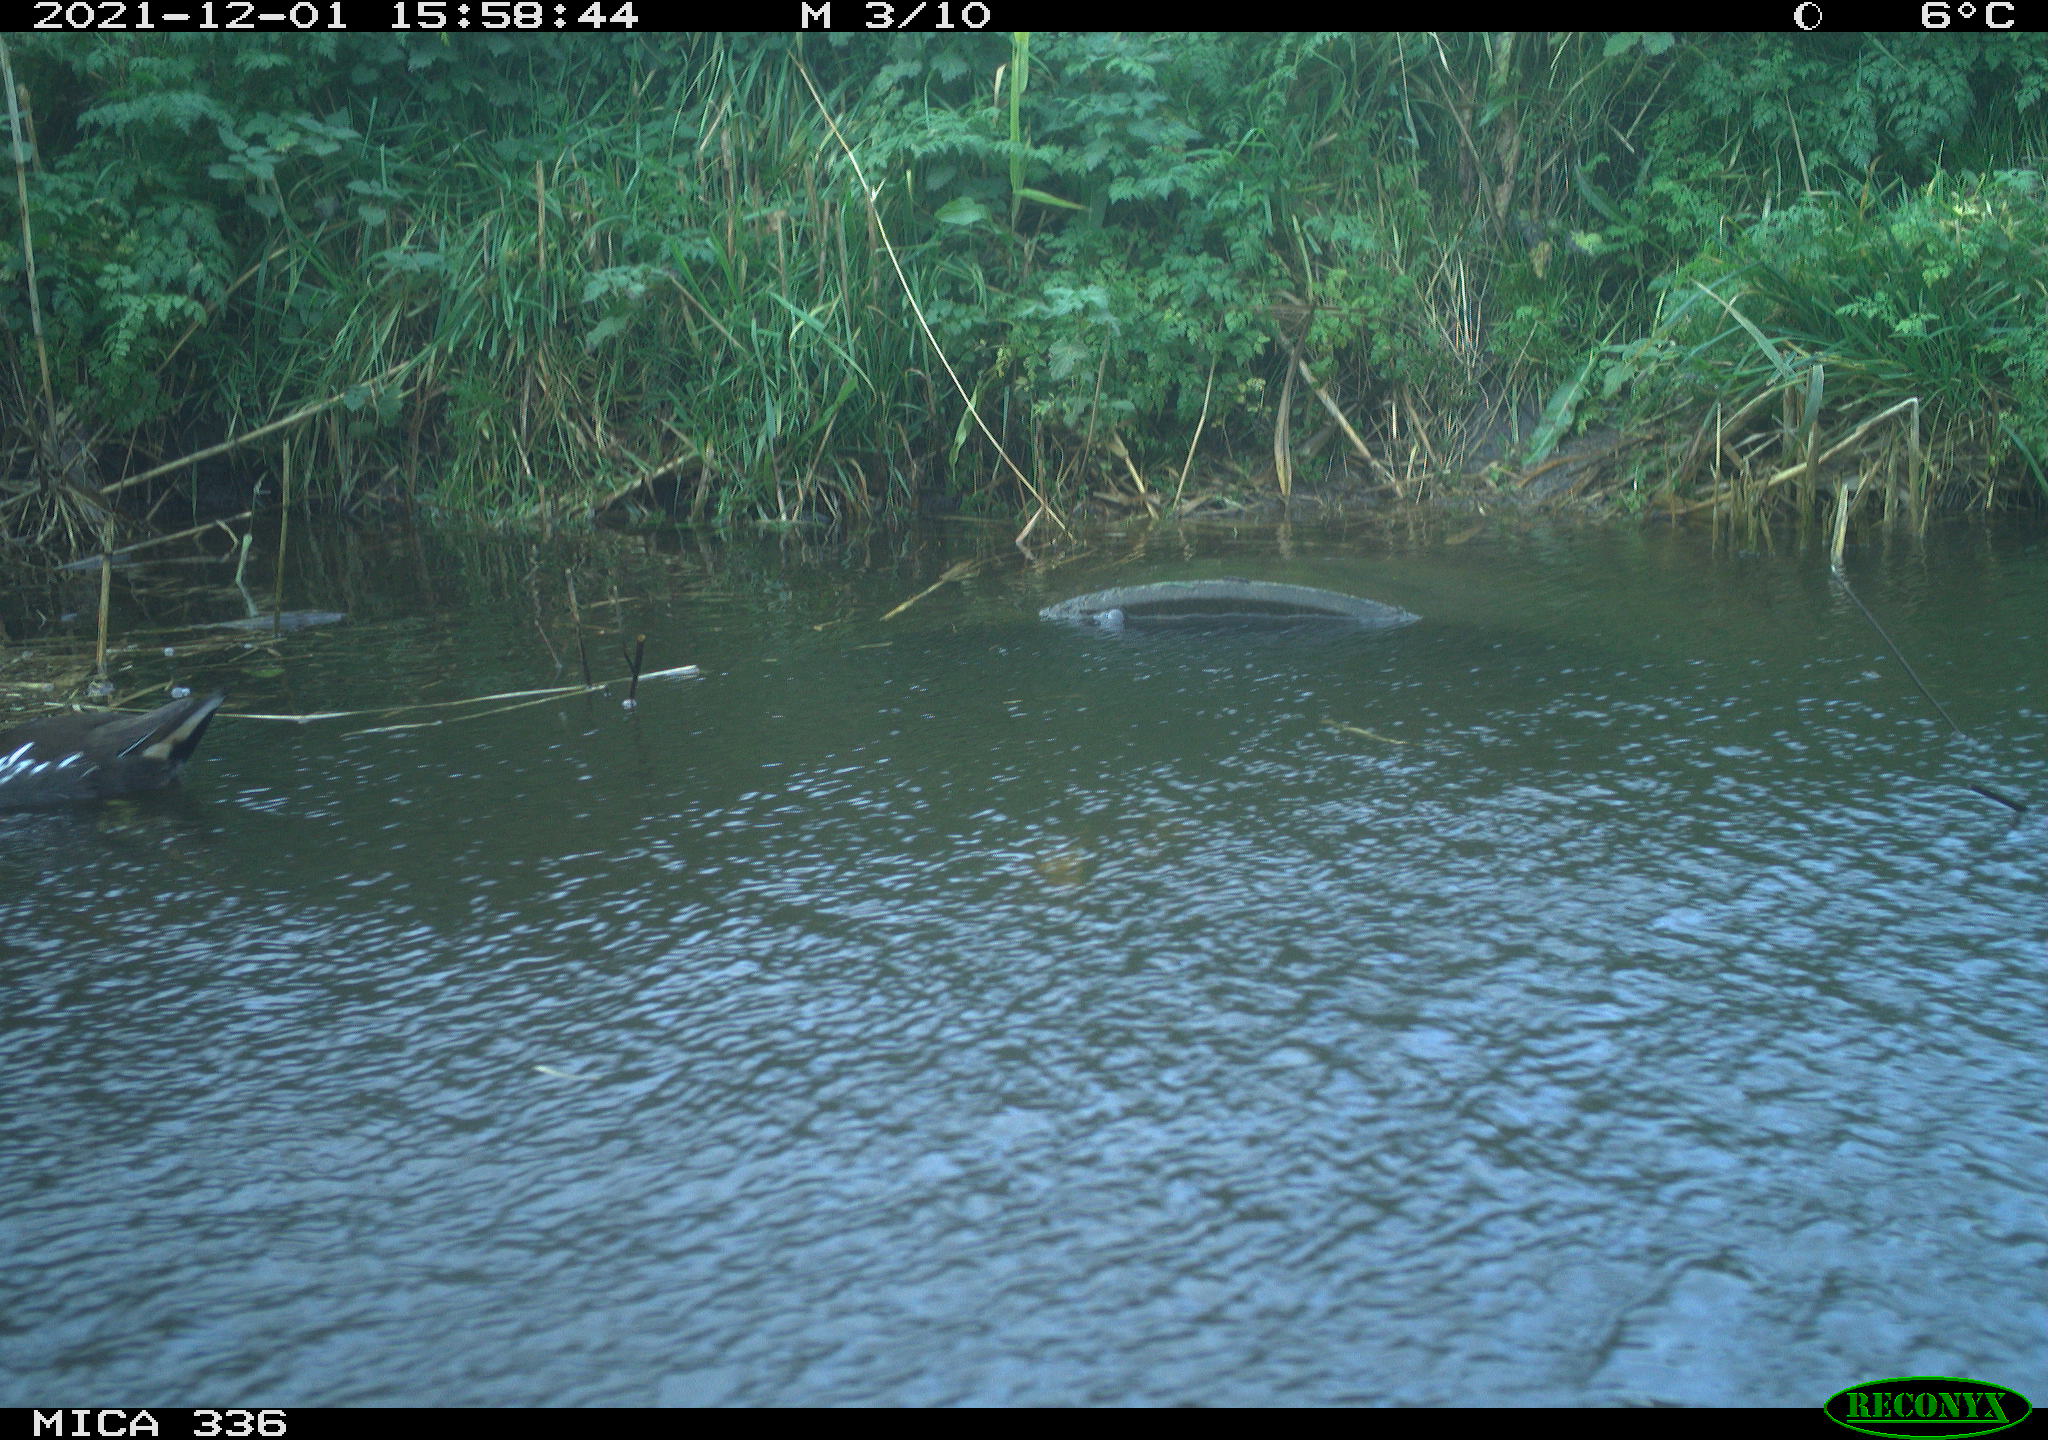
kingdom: Animalia
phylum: Chordata
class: Aves
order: Gruiformes
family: Rallidae
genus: Gallinula
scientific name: Gallinula chloropus
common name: Common moorhen
